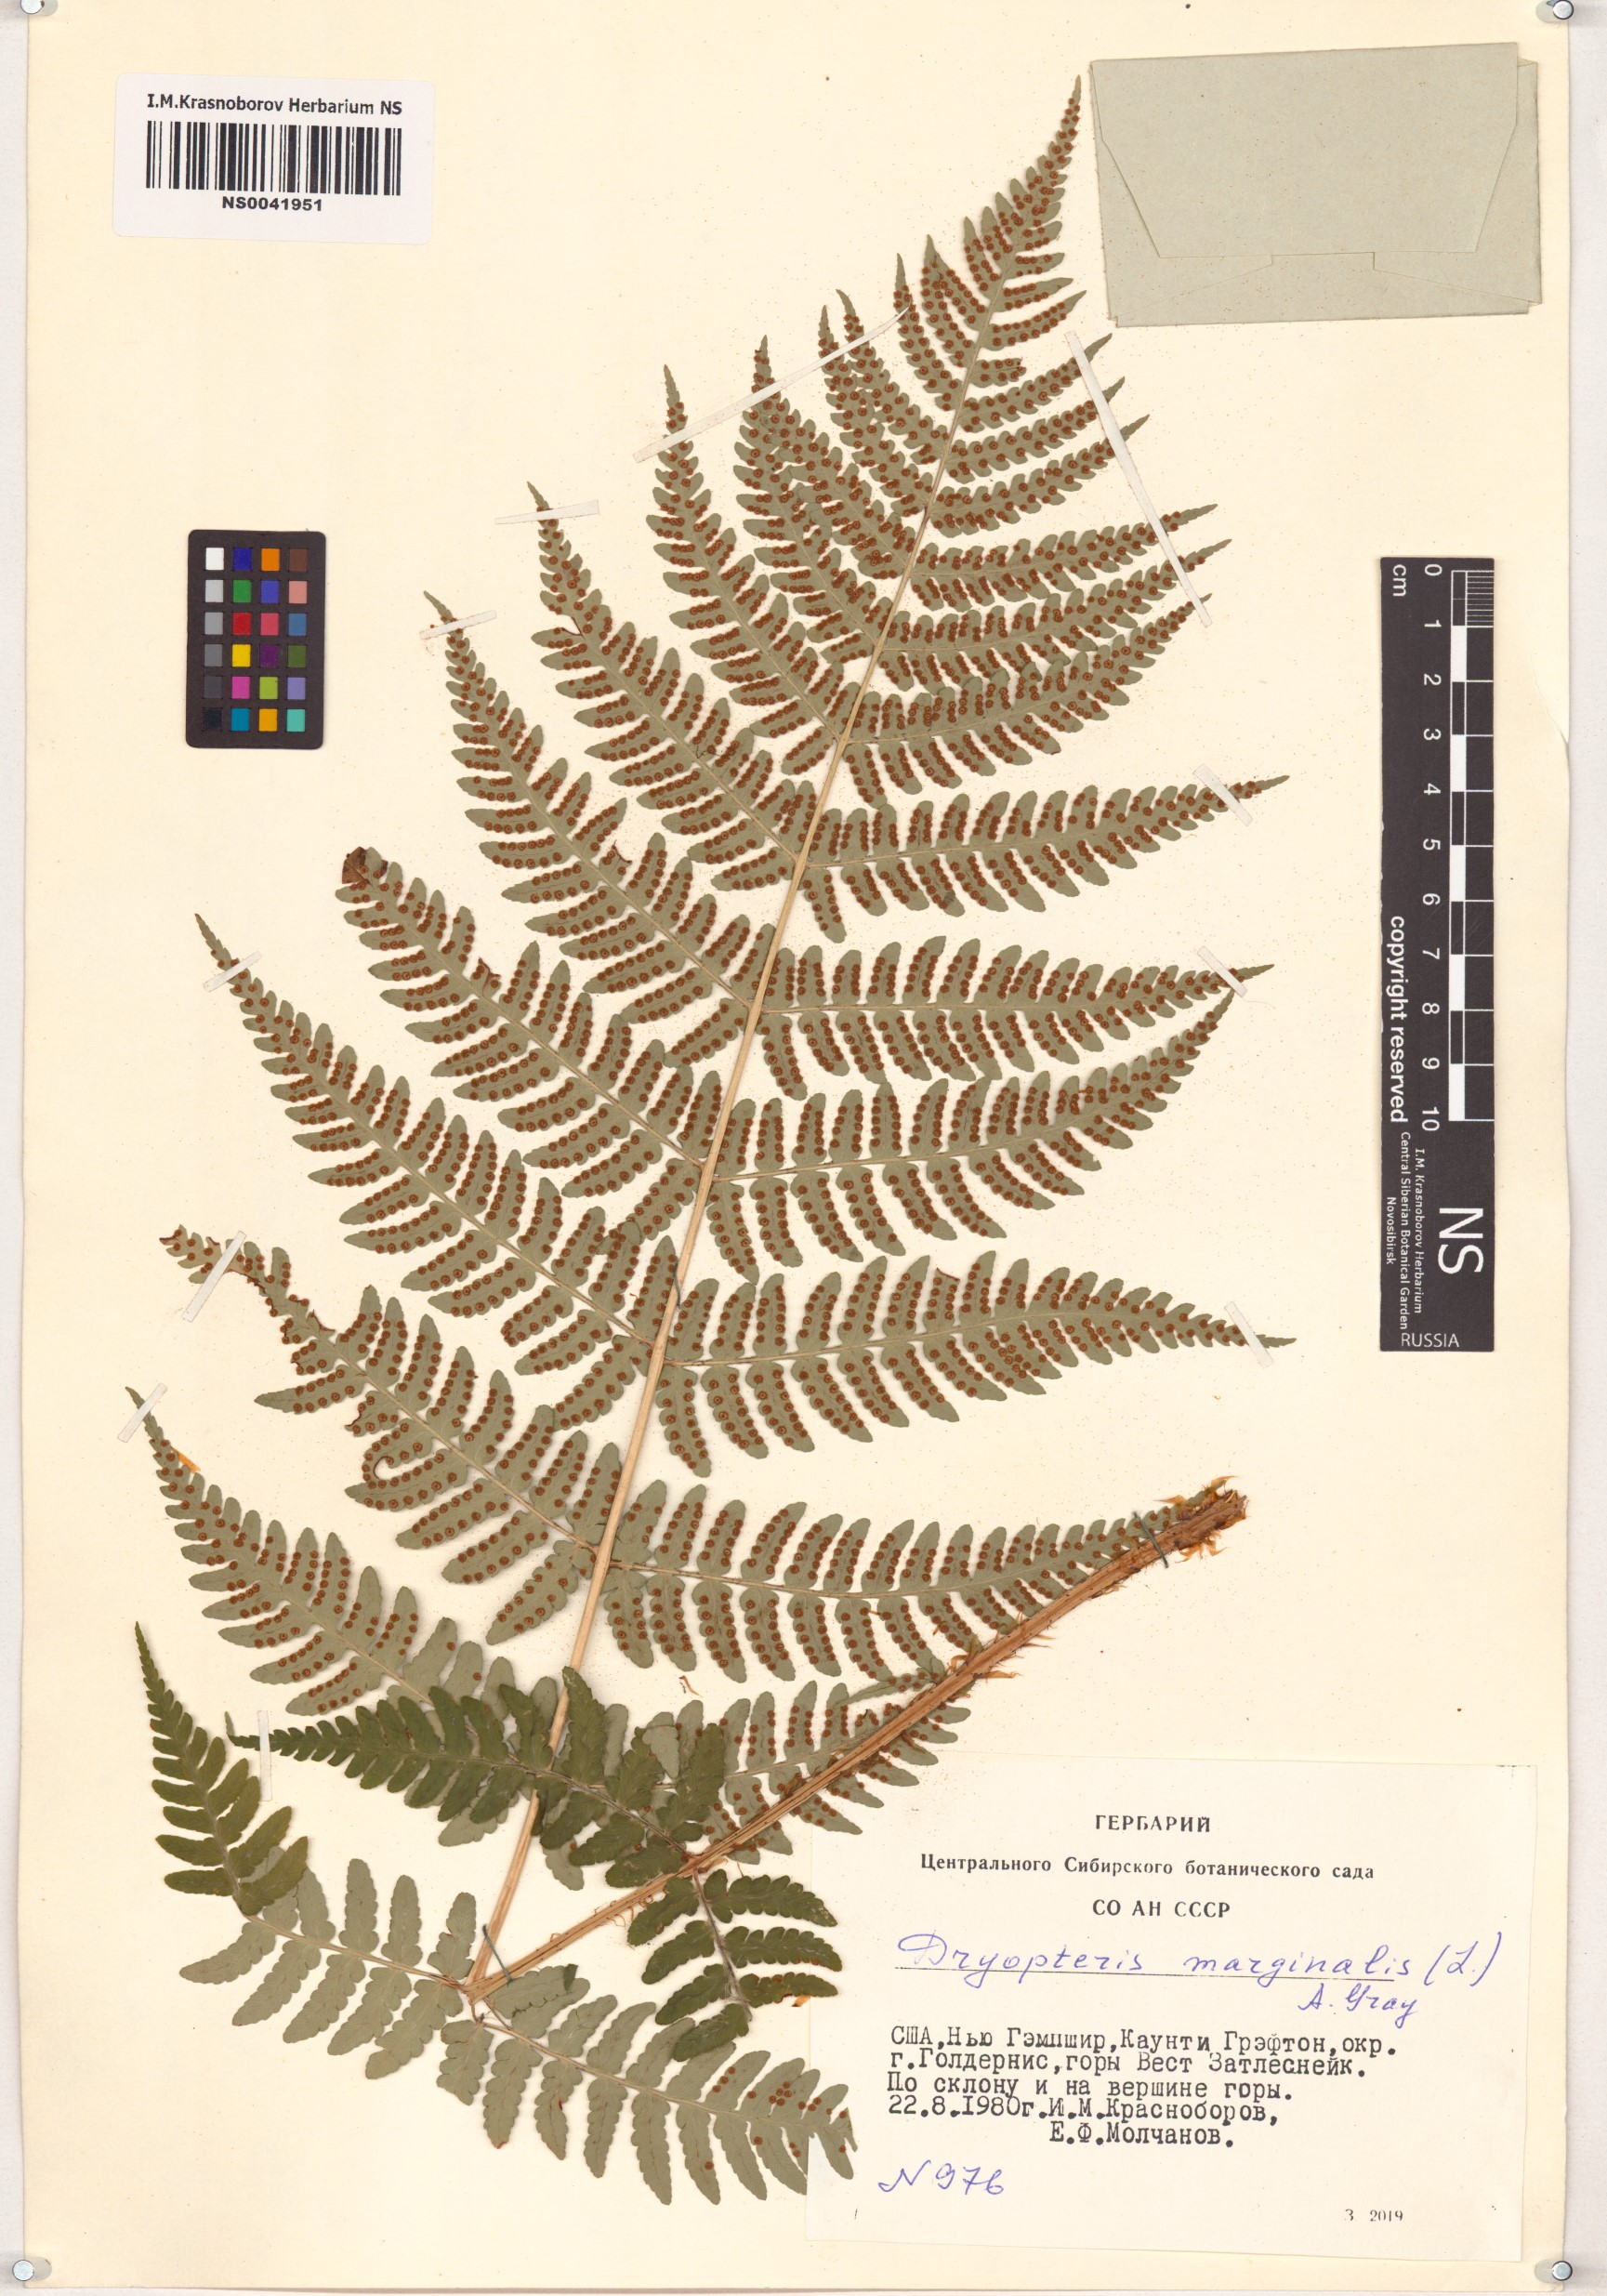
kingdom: Plantae
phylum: Tracheophyta
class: Polypodiopsida
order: Polypodiales
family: Dryopteridaceae
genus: Dryopteris
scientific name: Dryopteris marginalis
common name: Marginal wood fern
